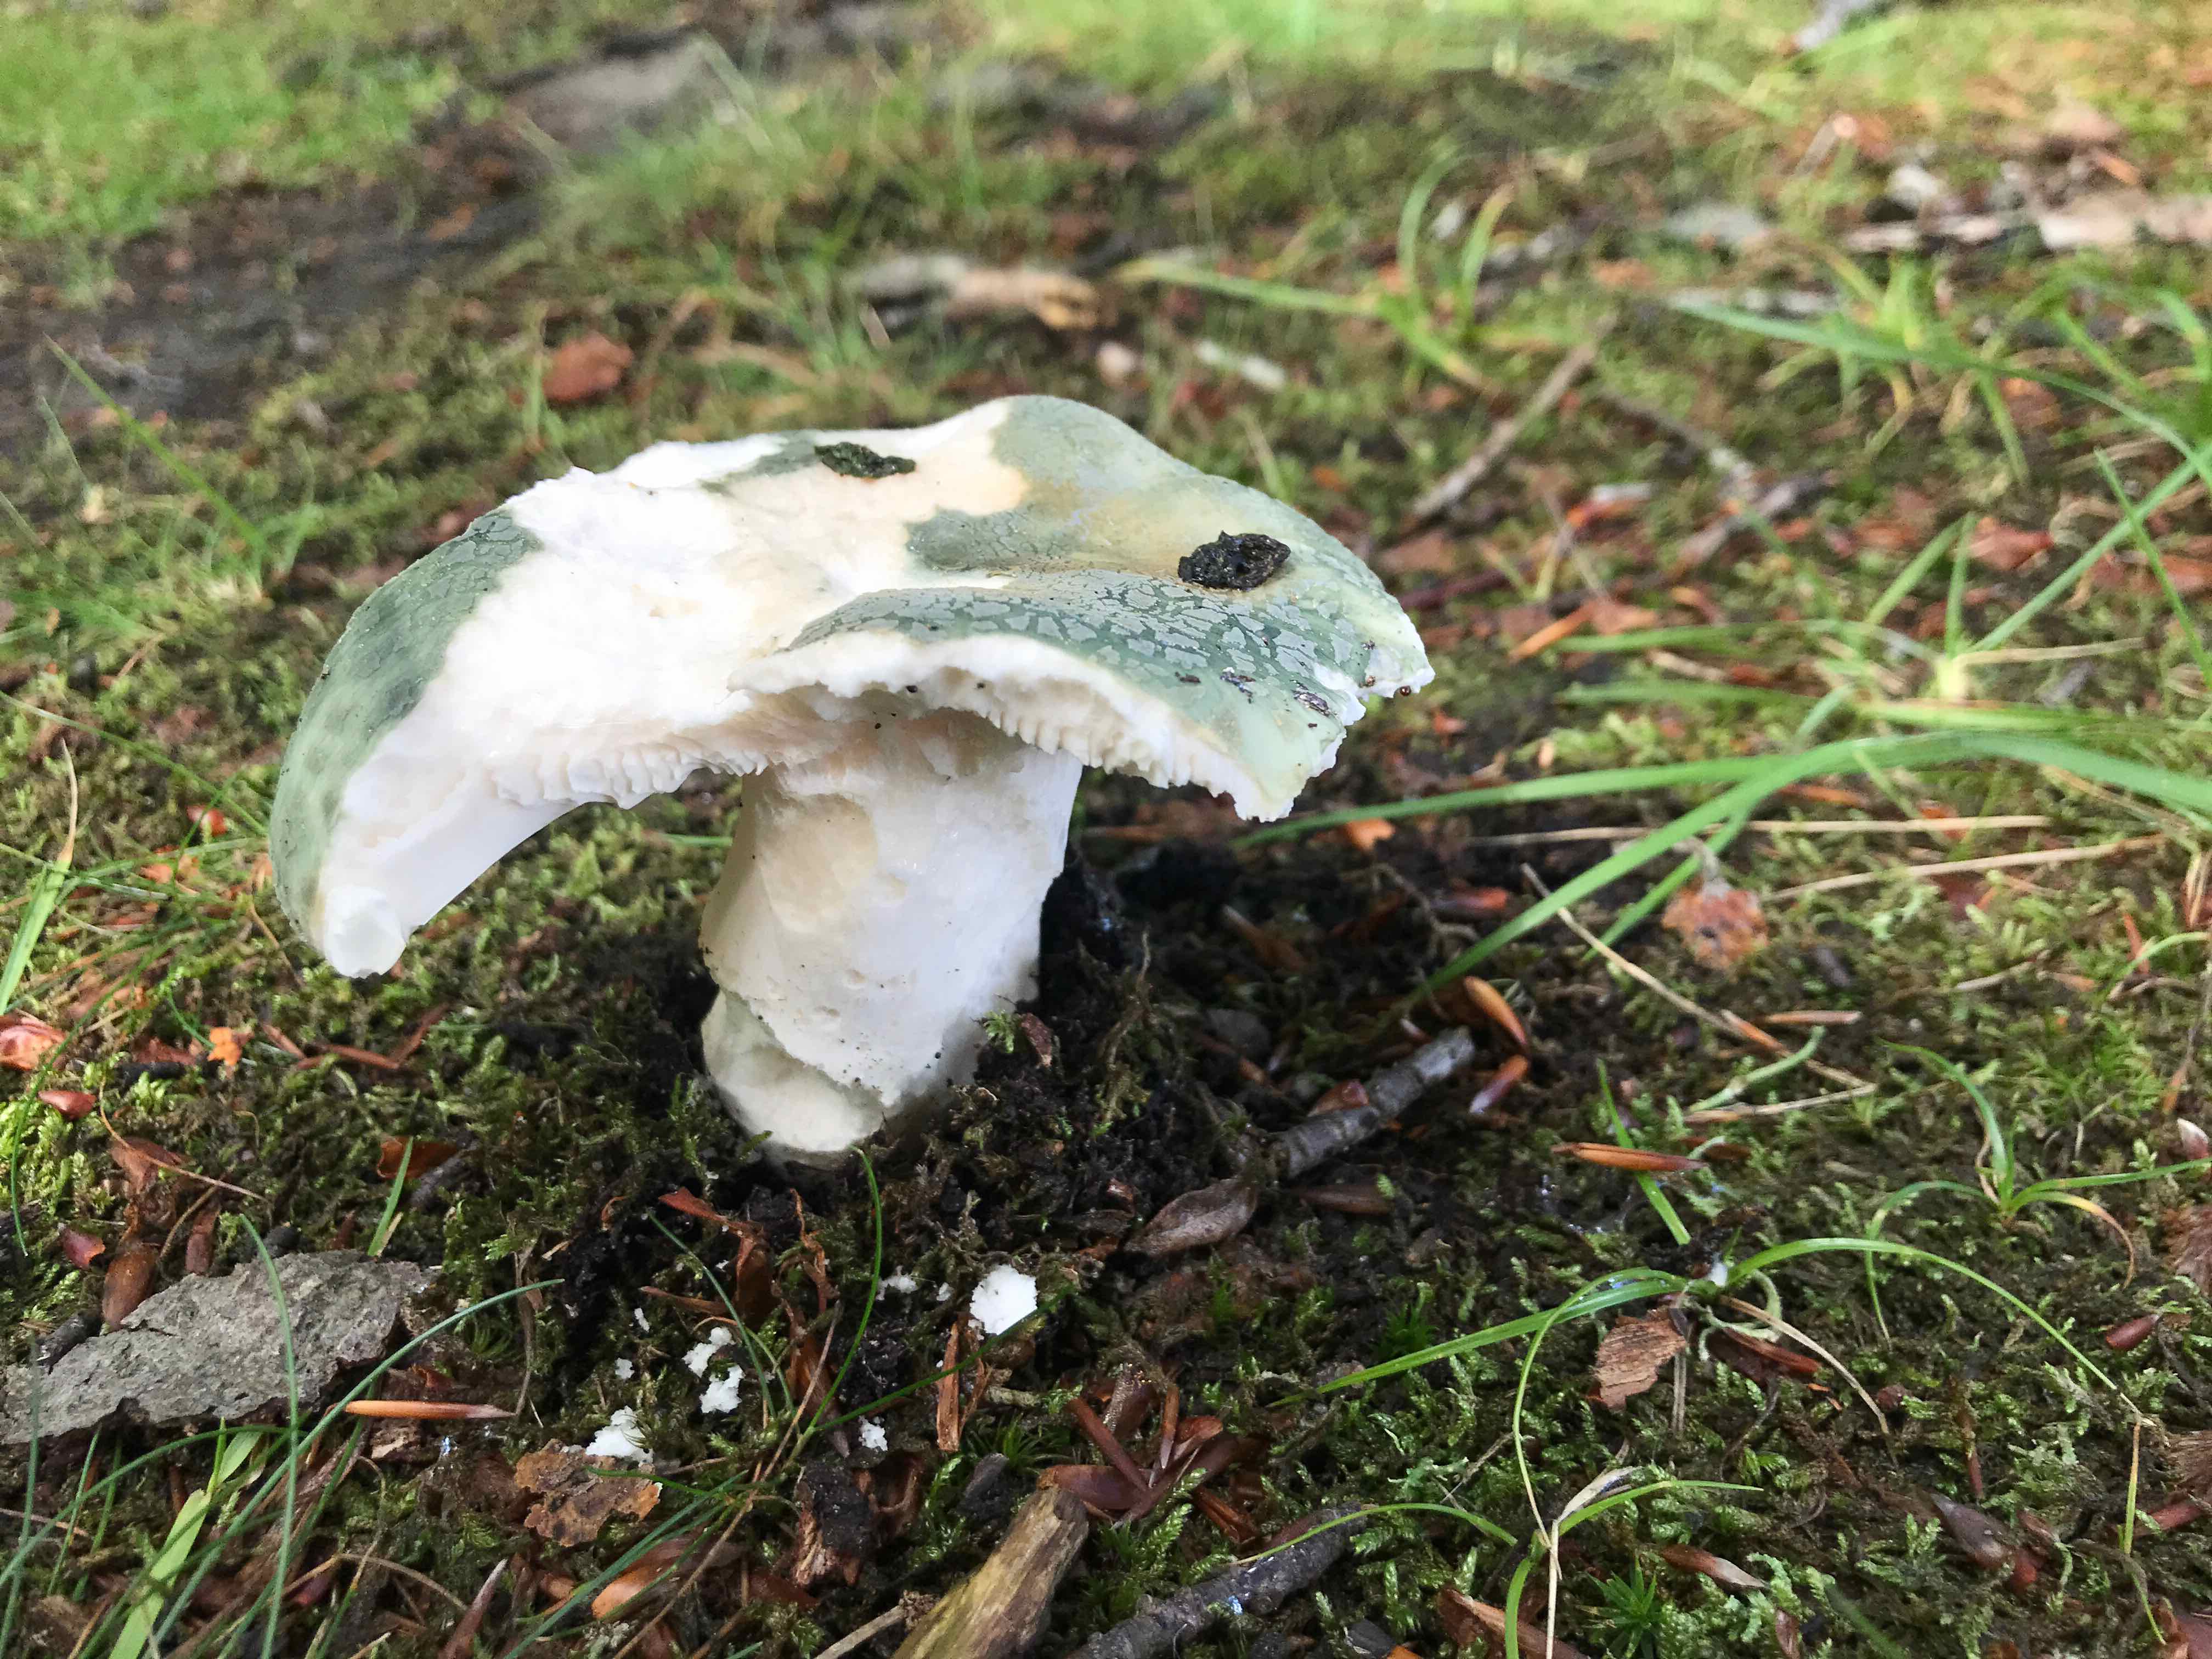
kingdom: Fungi
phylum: Basidiomycota
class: Agaricomycetes
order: Russulales
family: Russulaceae
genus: Russula
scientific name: Russula virescens
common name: spanskgrøn skørhat
